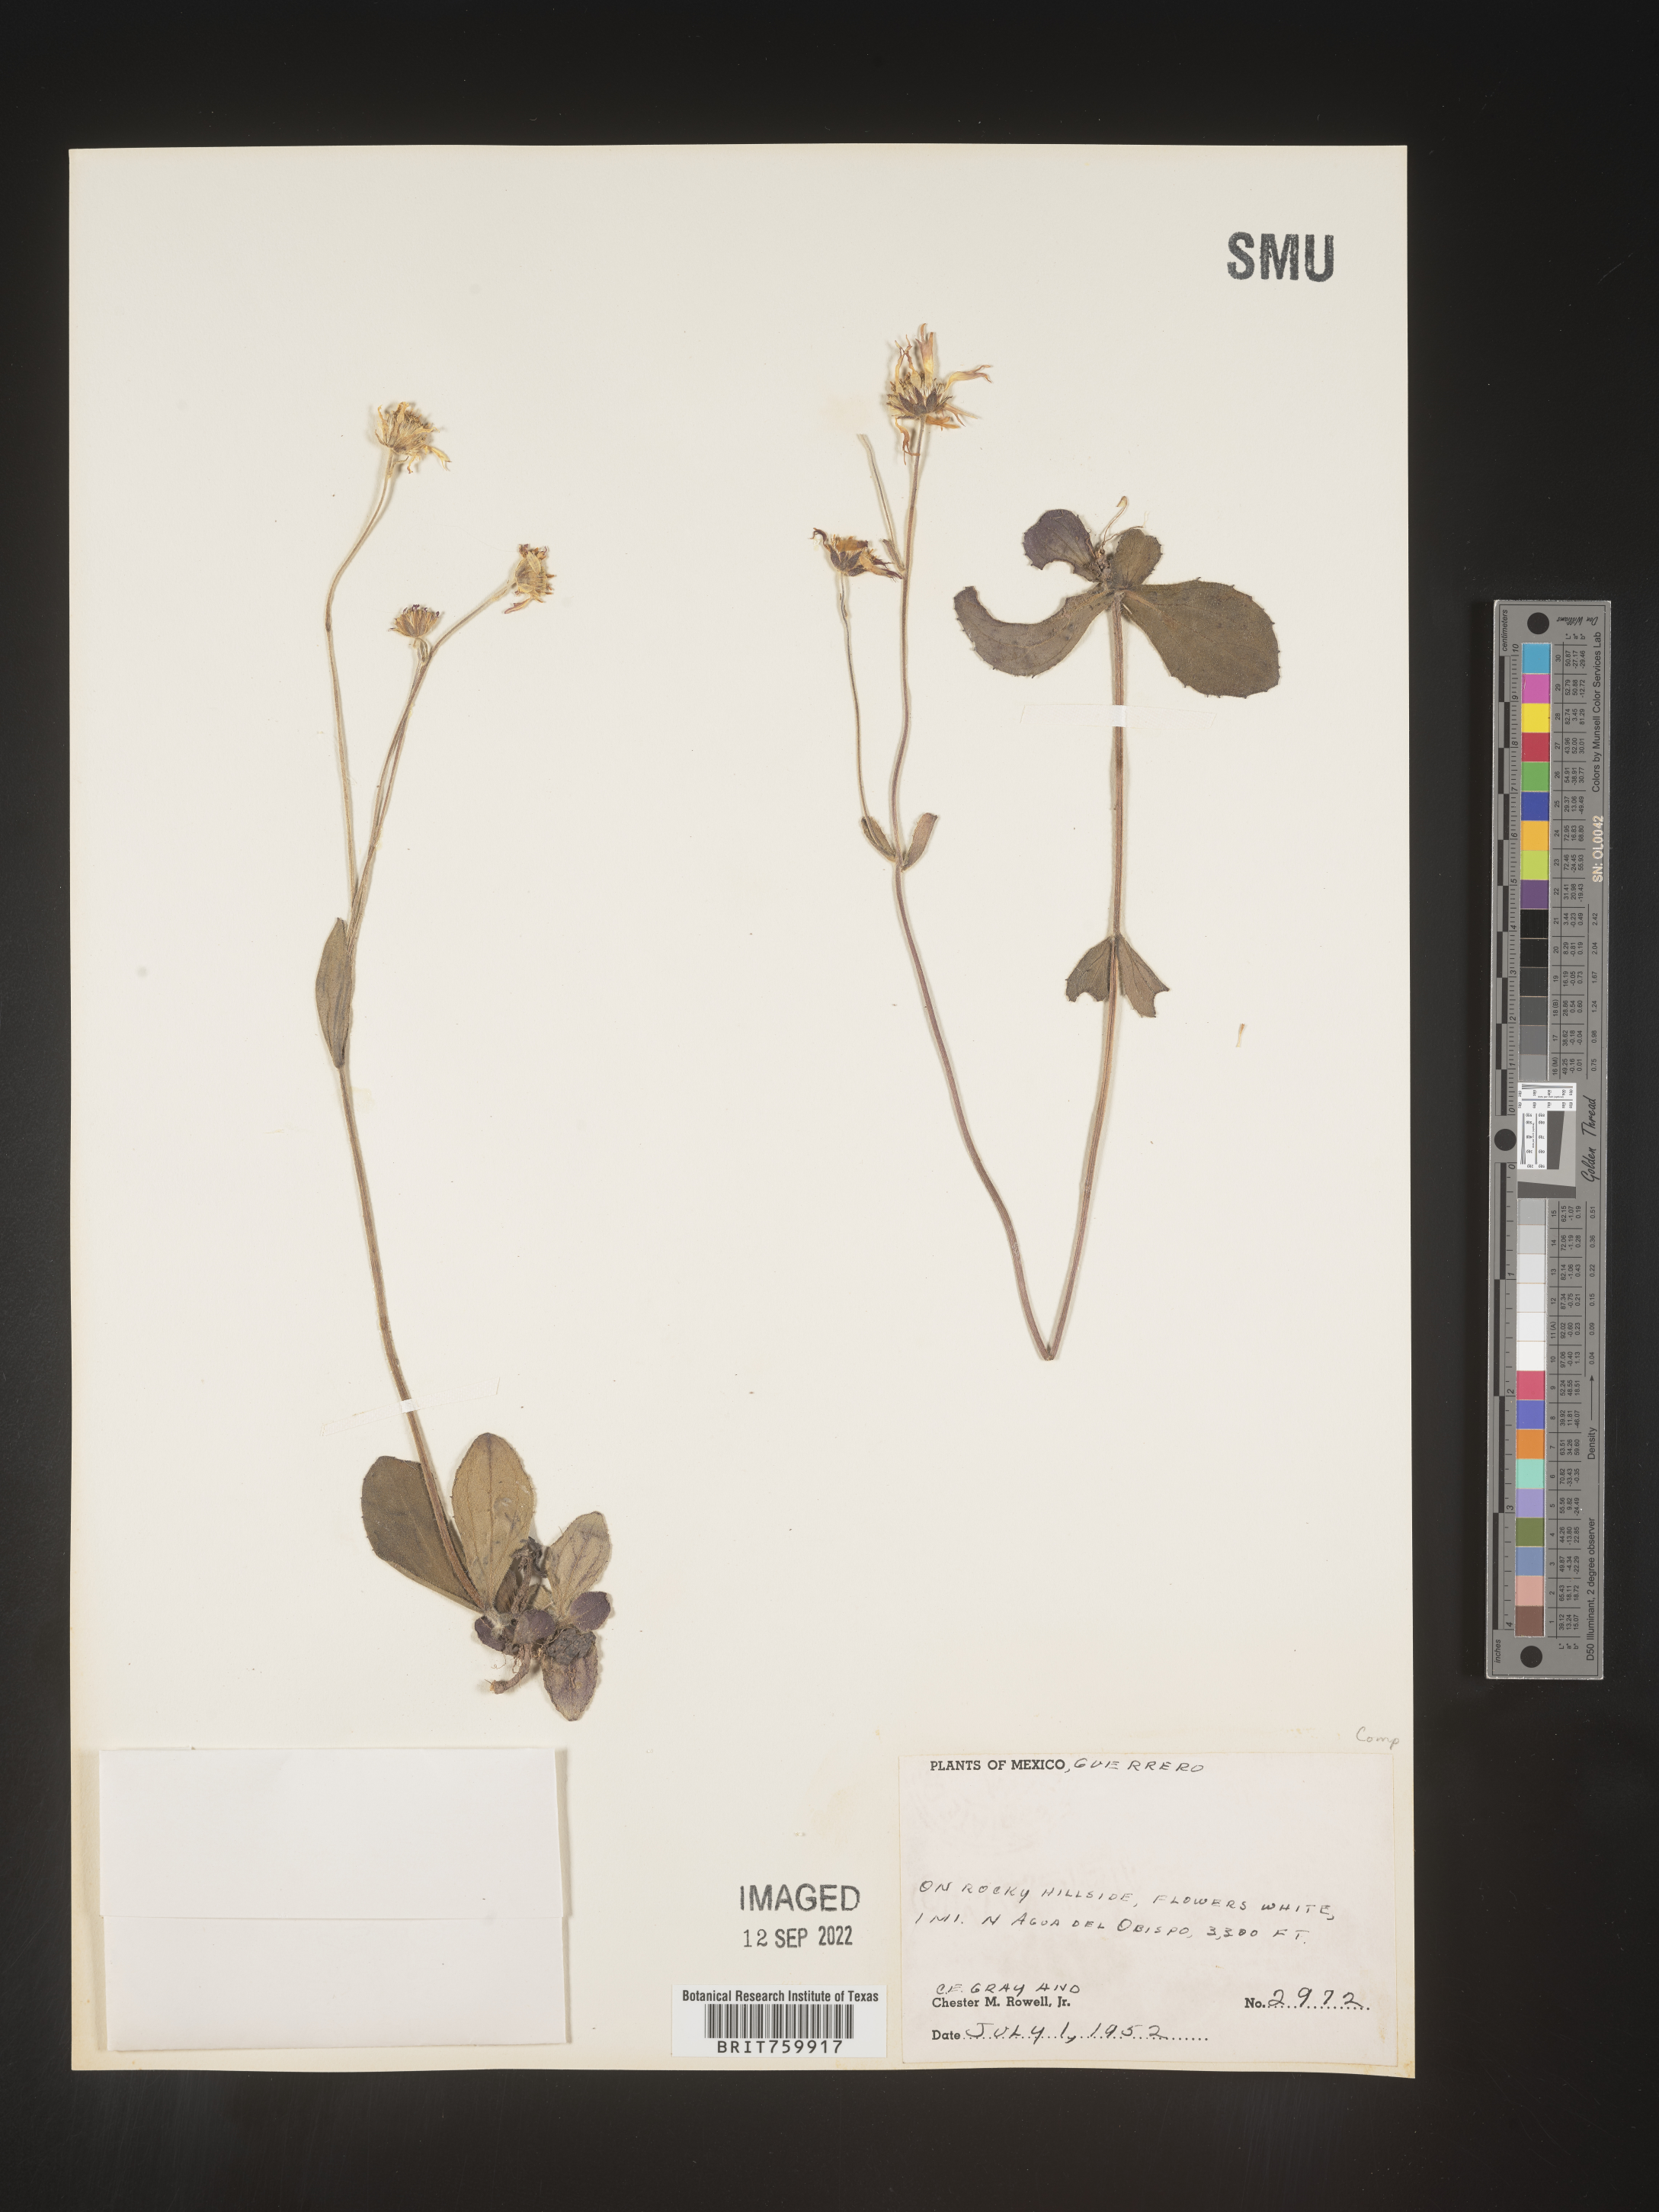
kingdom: Plantae
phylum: Tracheophyta
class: Magnoliopsida
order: Asterales
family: Asteraceae
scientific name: Asteraceae
